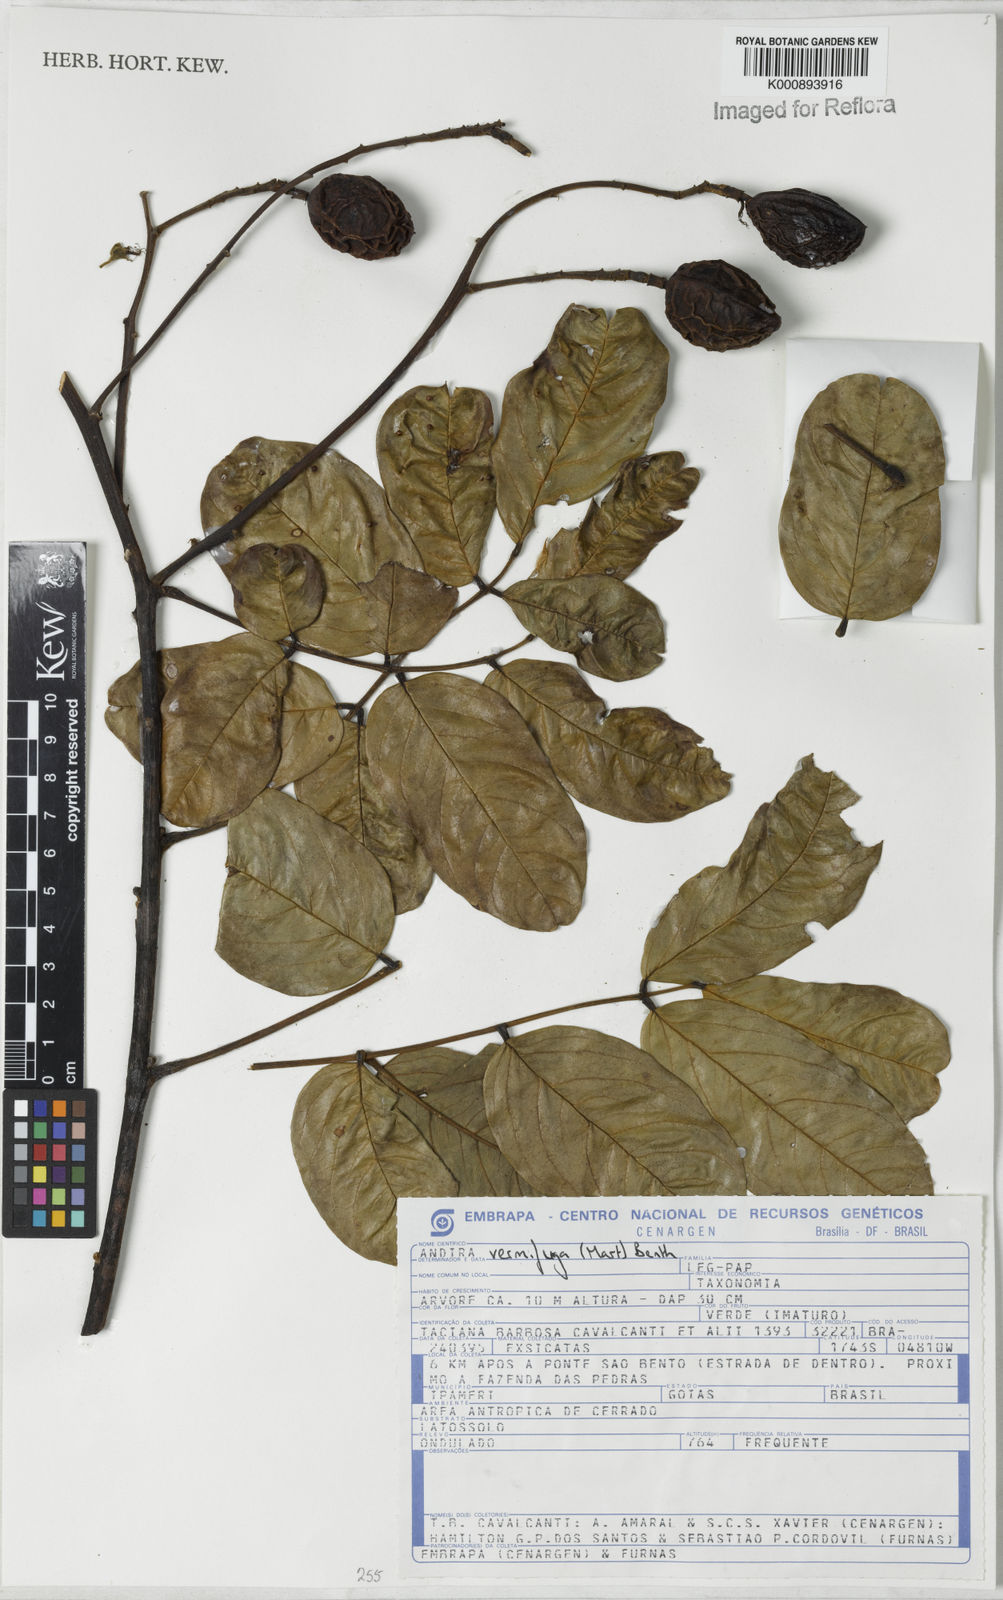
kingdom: Plantae
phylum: Tracheophyta
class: Magnoliopsida
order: Fabales
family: Fabaceae
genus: Andira
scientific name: Andira vermifuga
